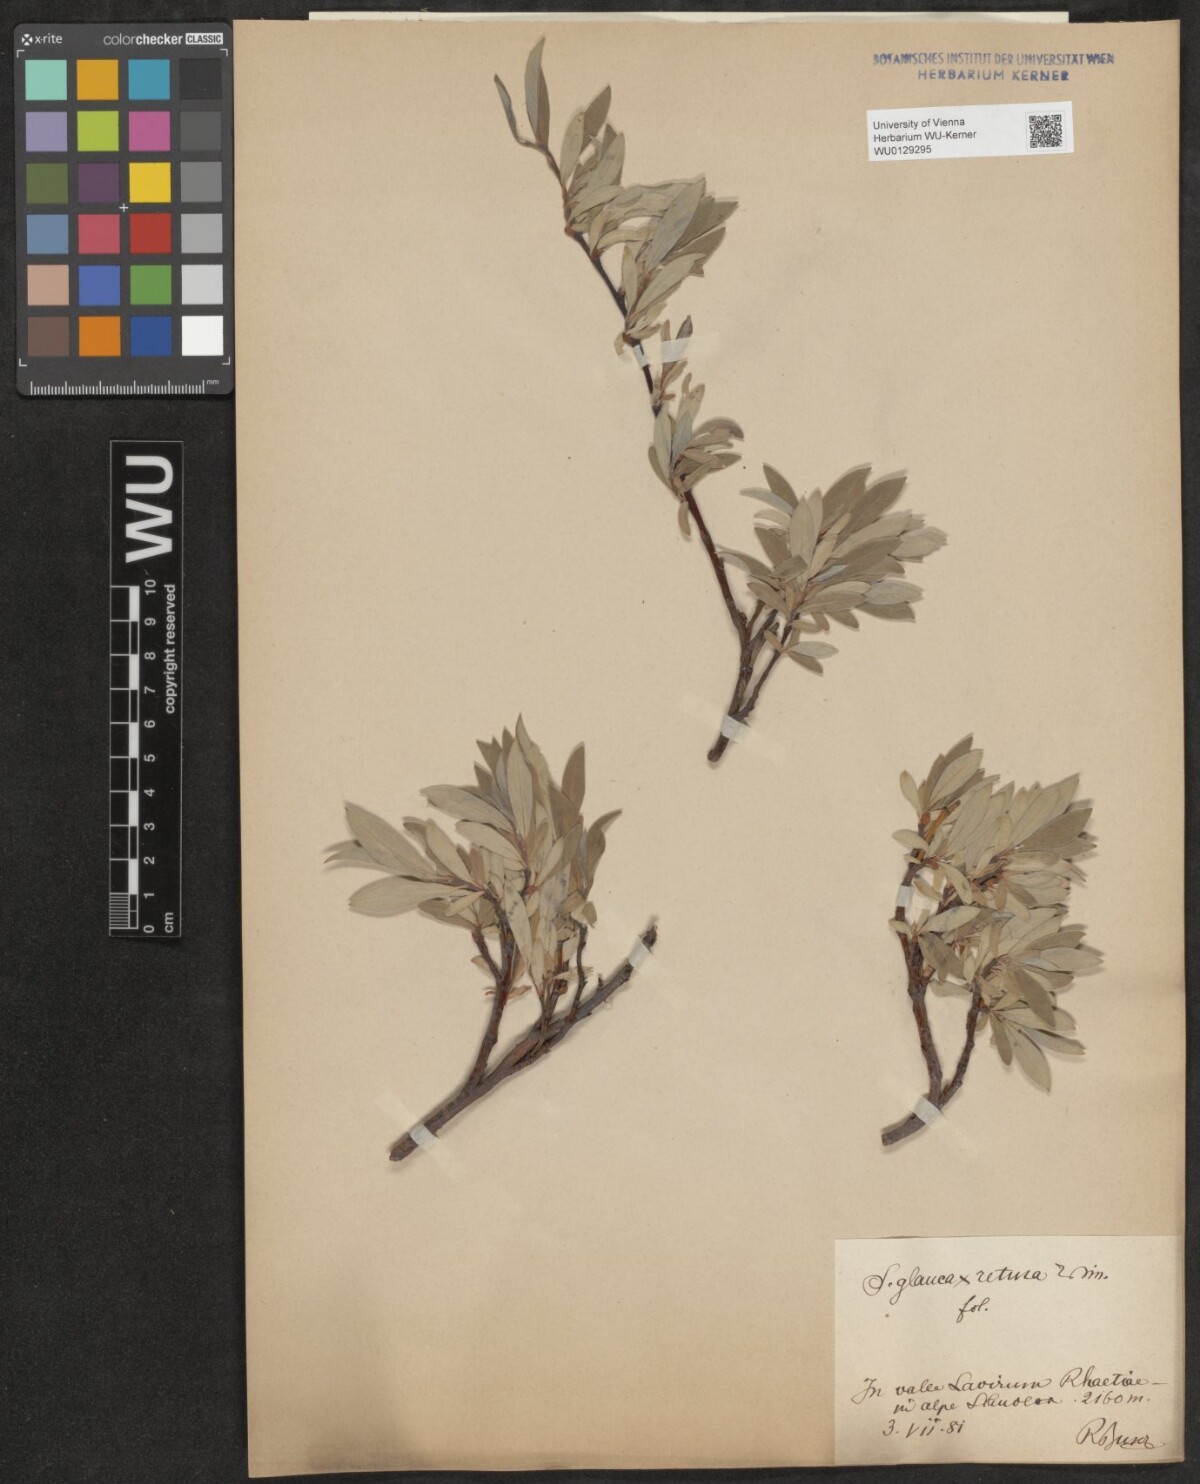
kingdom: Plantae
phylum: Tracheophyta
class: Magnoliopsida
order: Malpighiales
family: Salicaceae
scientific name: Salicaceae
